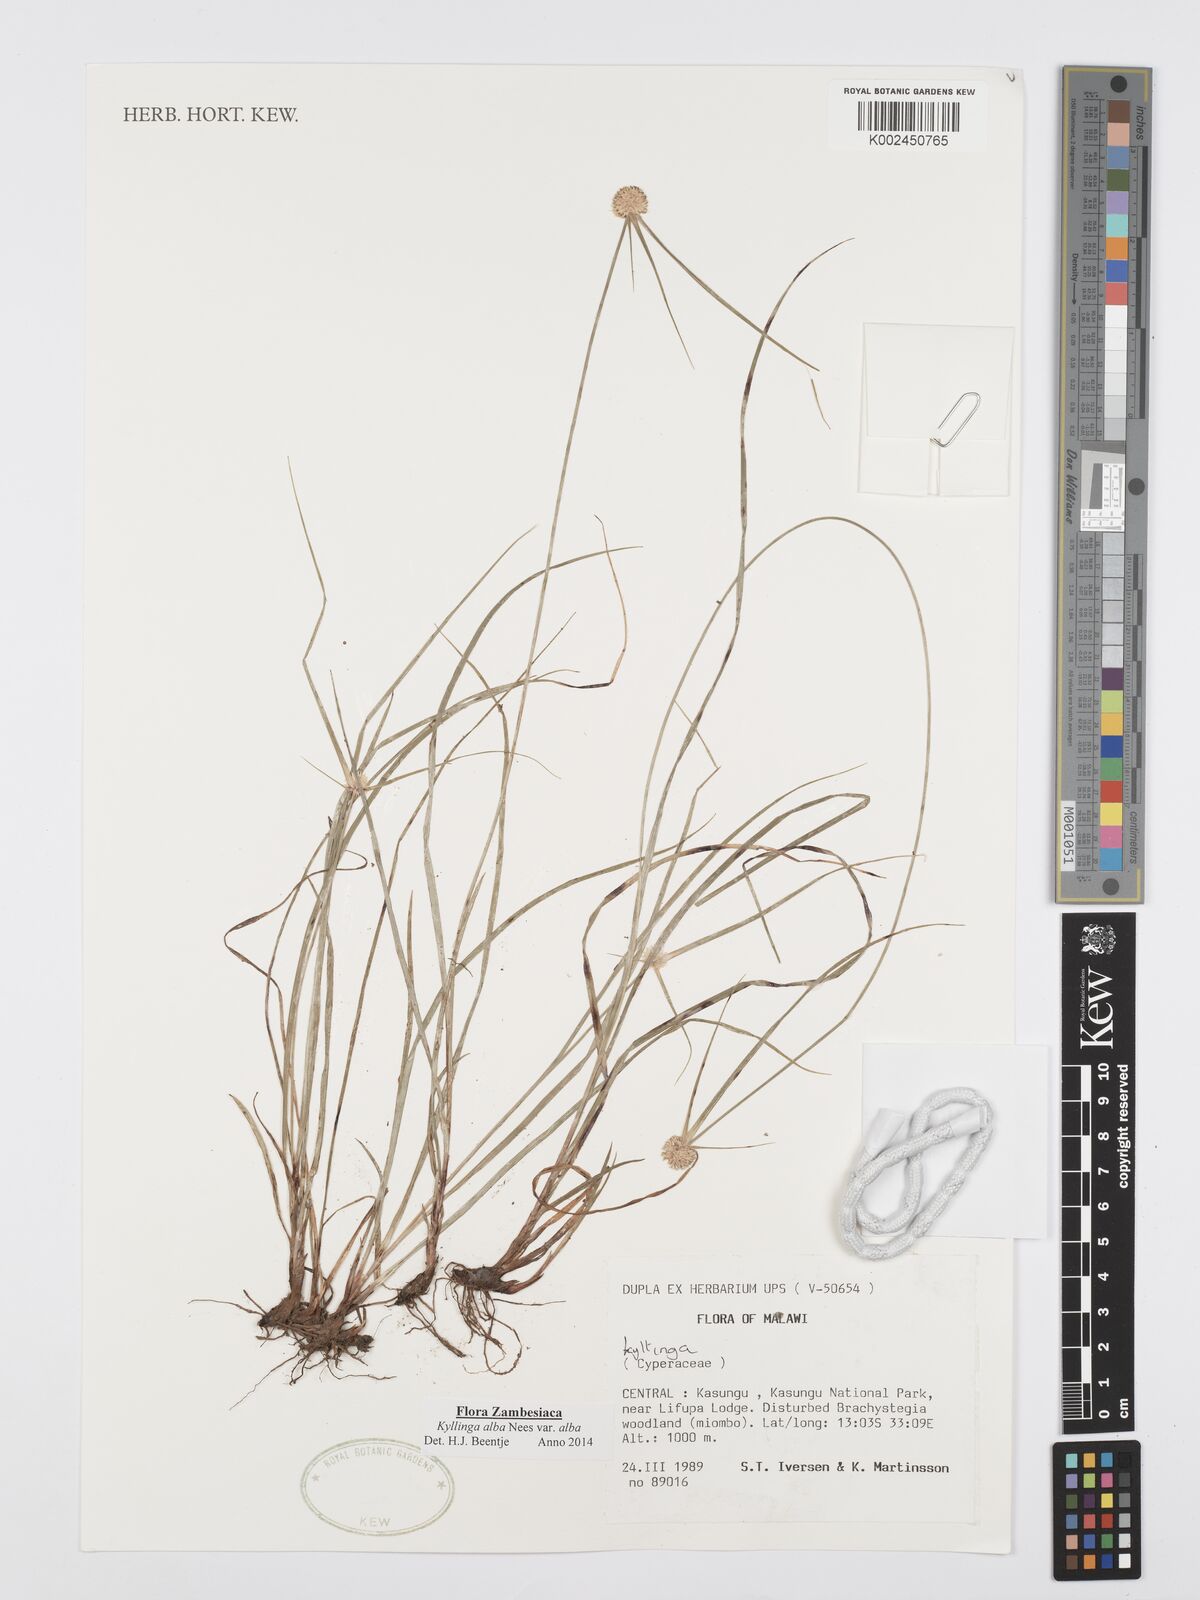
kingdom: Plantae
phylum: Tracheophyta
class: Liliopsida
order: Poales
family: Cyperaceae
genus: Cyperus
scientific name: Cyperus rukwanus
